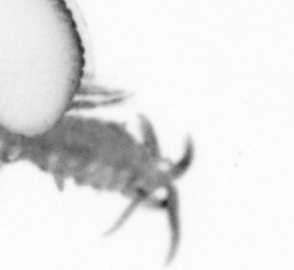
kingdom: Animalia
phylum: Annelida
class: Polychaeta
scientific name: Polychaeta
